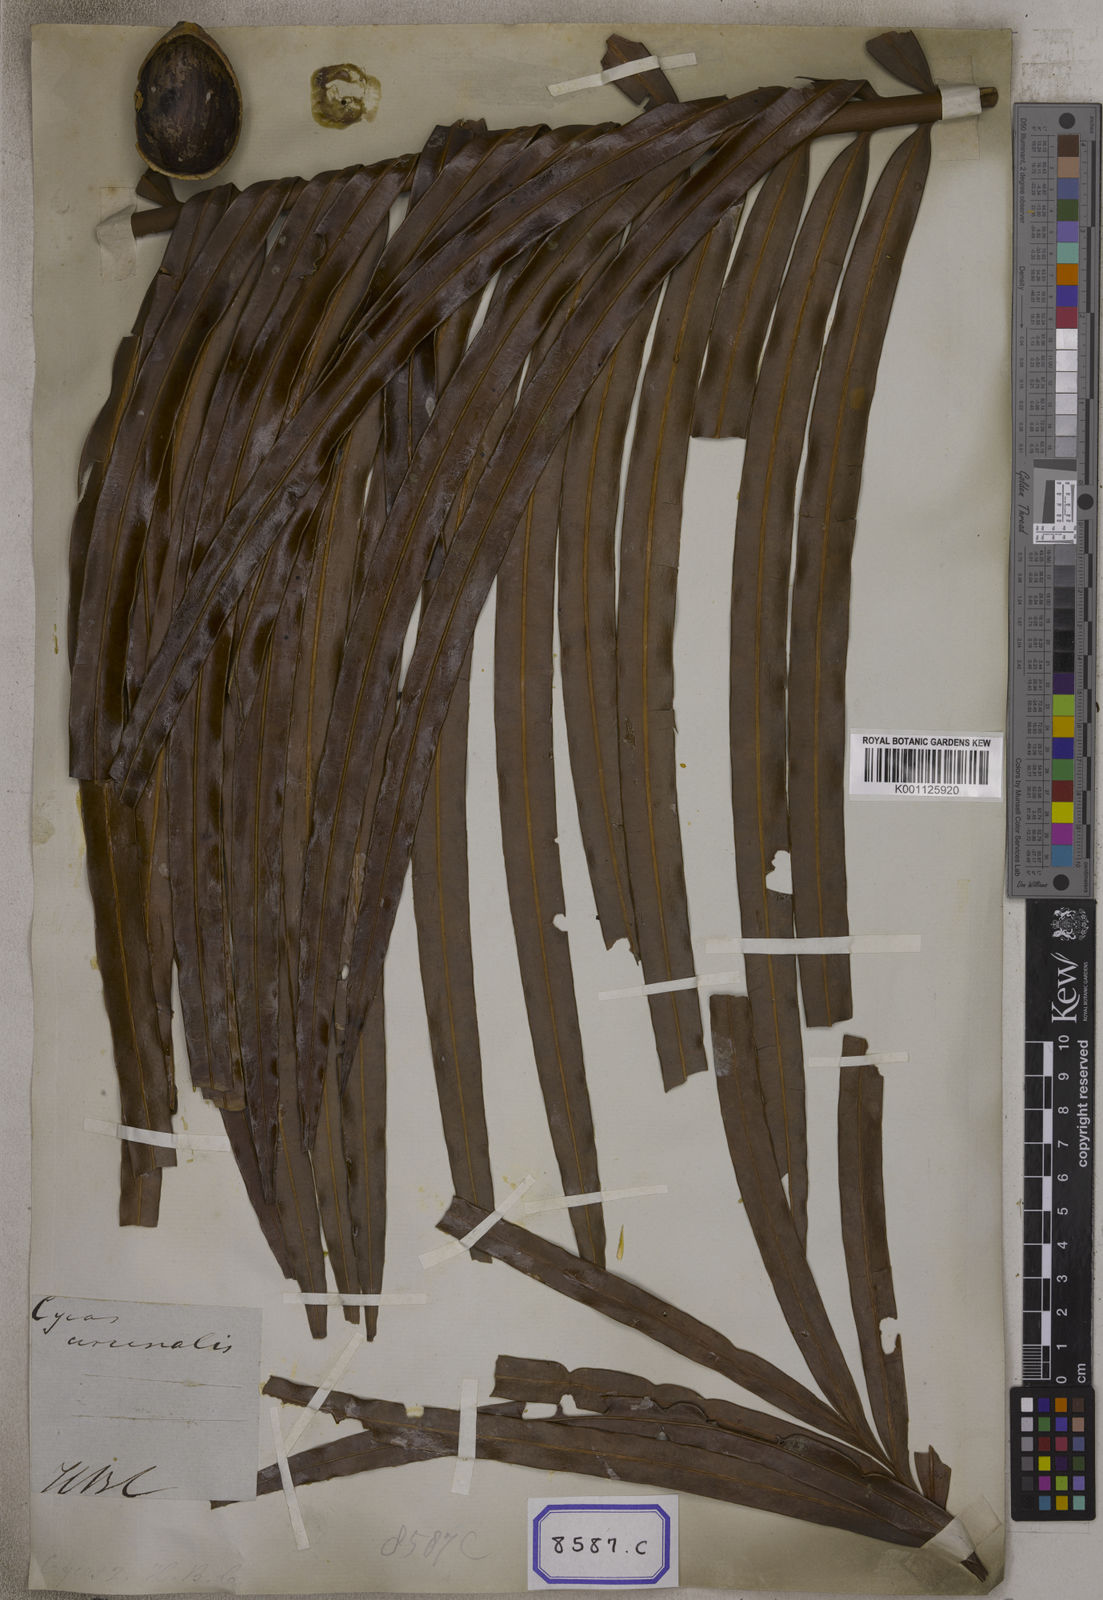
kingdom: Plantae
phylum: Tracheophyta
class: Cycadopsida
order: Cycadales
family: Cycadaceae
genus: Cycas
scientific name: Cycas circinalis
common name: Queen sago
